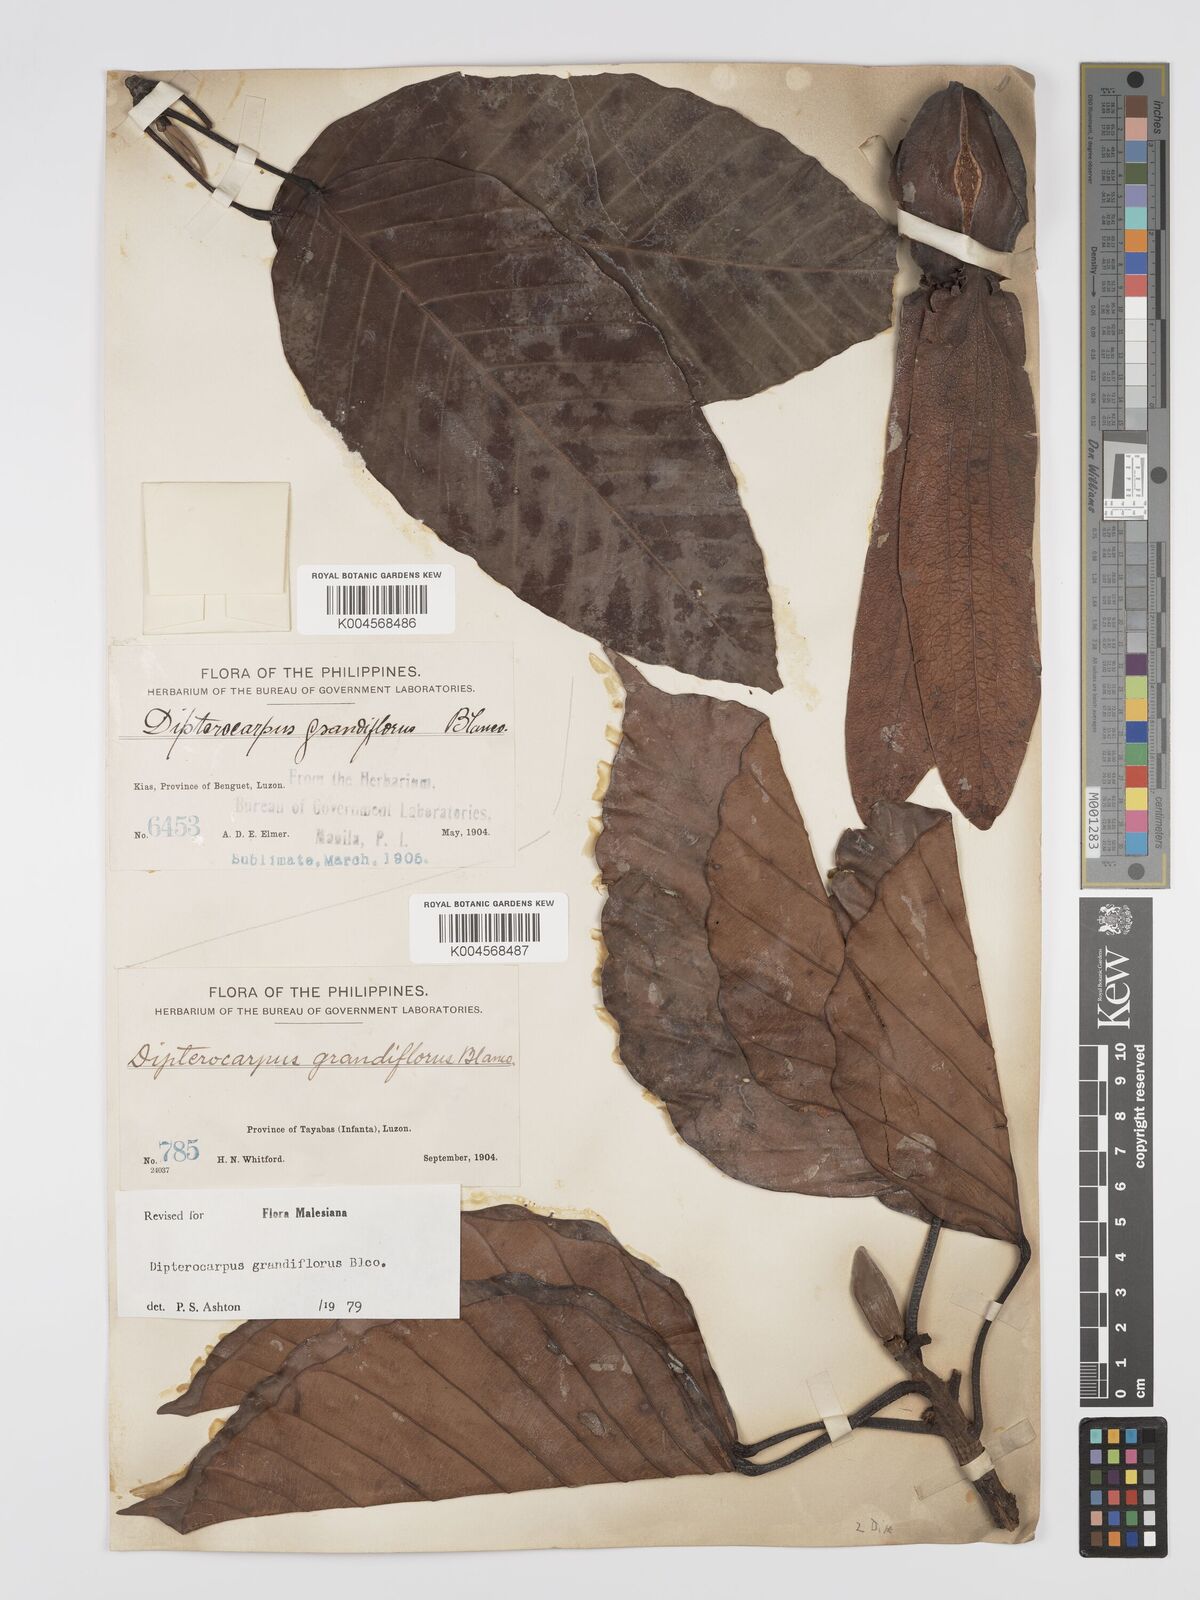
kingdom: Plantae
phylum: Tracheophyta
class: Magnoliopsida
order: Malvales
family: Dipterocarpaceae
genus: Dipterocarpus
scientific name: Dipterocarpus grandiflorus
